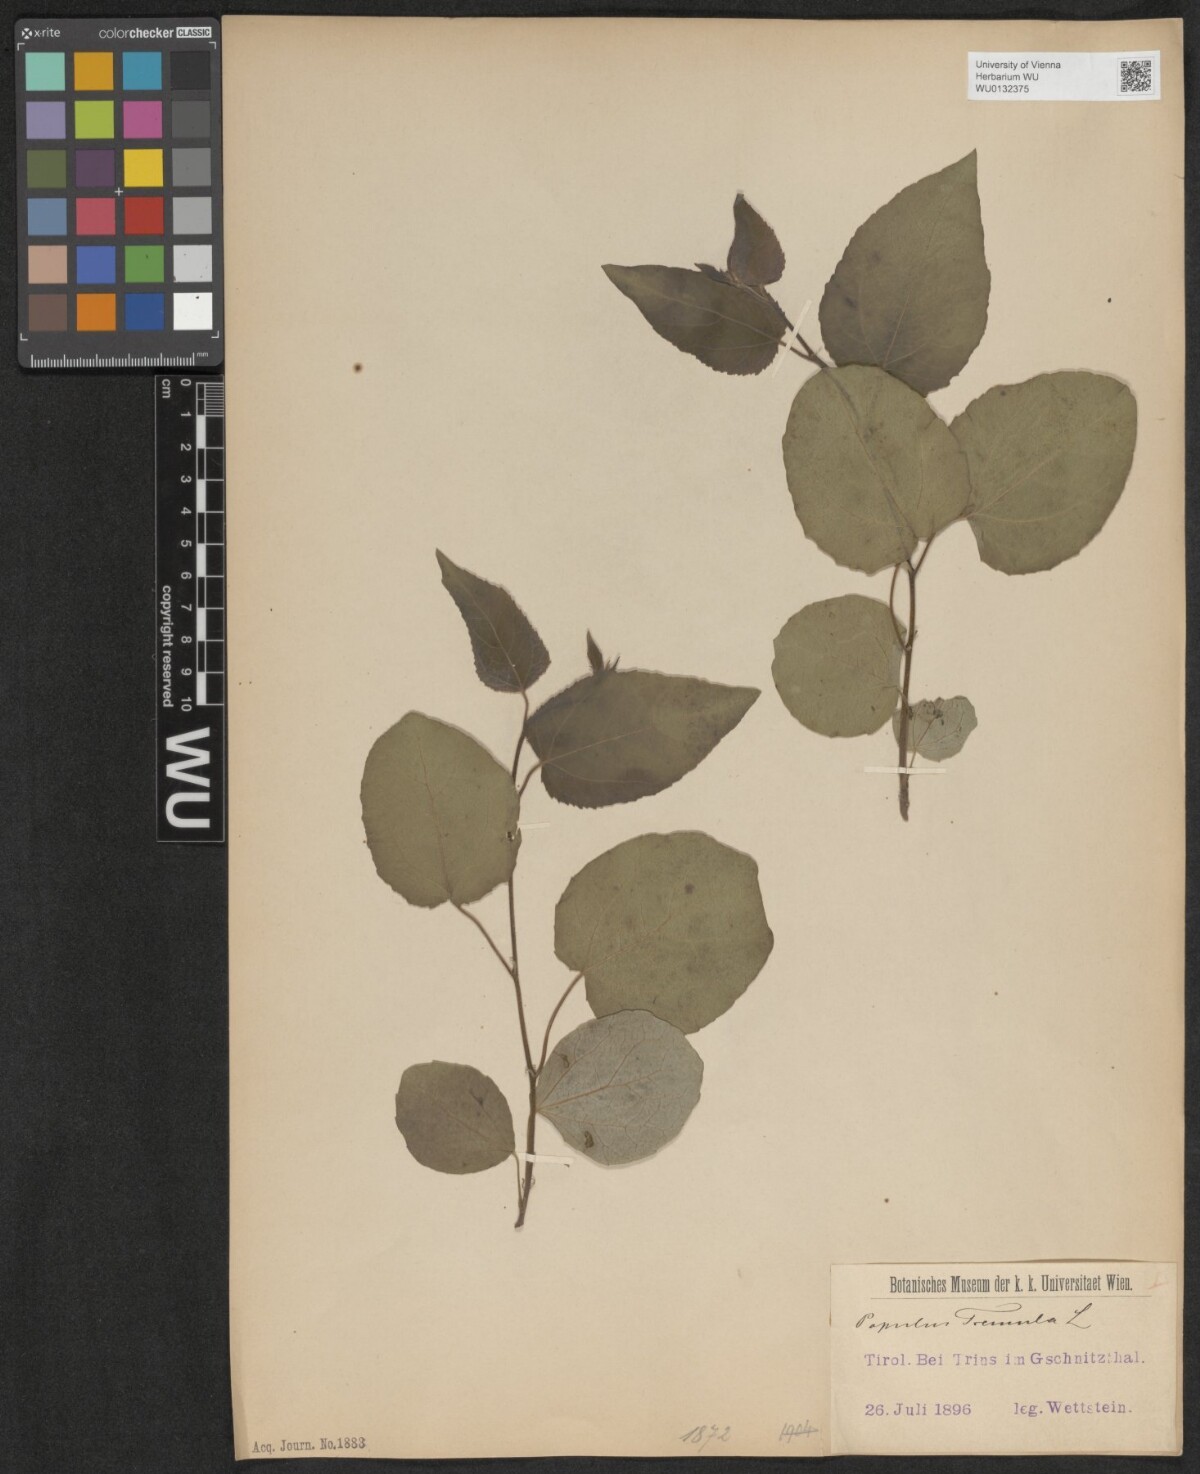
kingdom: Plantae
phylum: Tracheophyta
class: Magnoliopsida
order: Malpighiales
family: Salicaceae
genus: Populus
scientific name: Populus tremula
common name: European aspen
